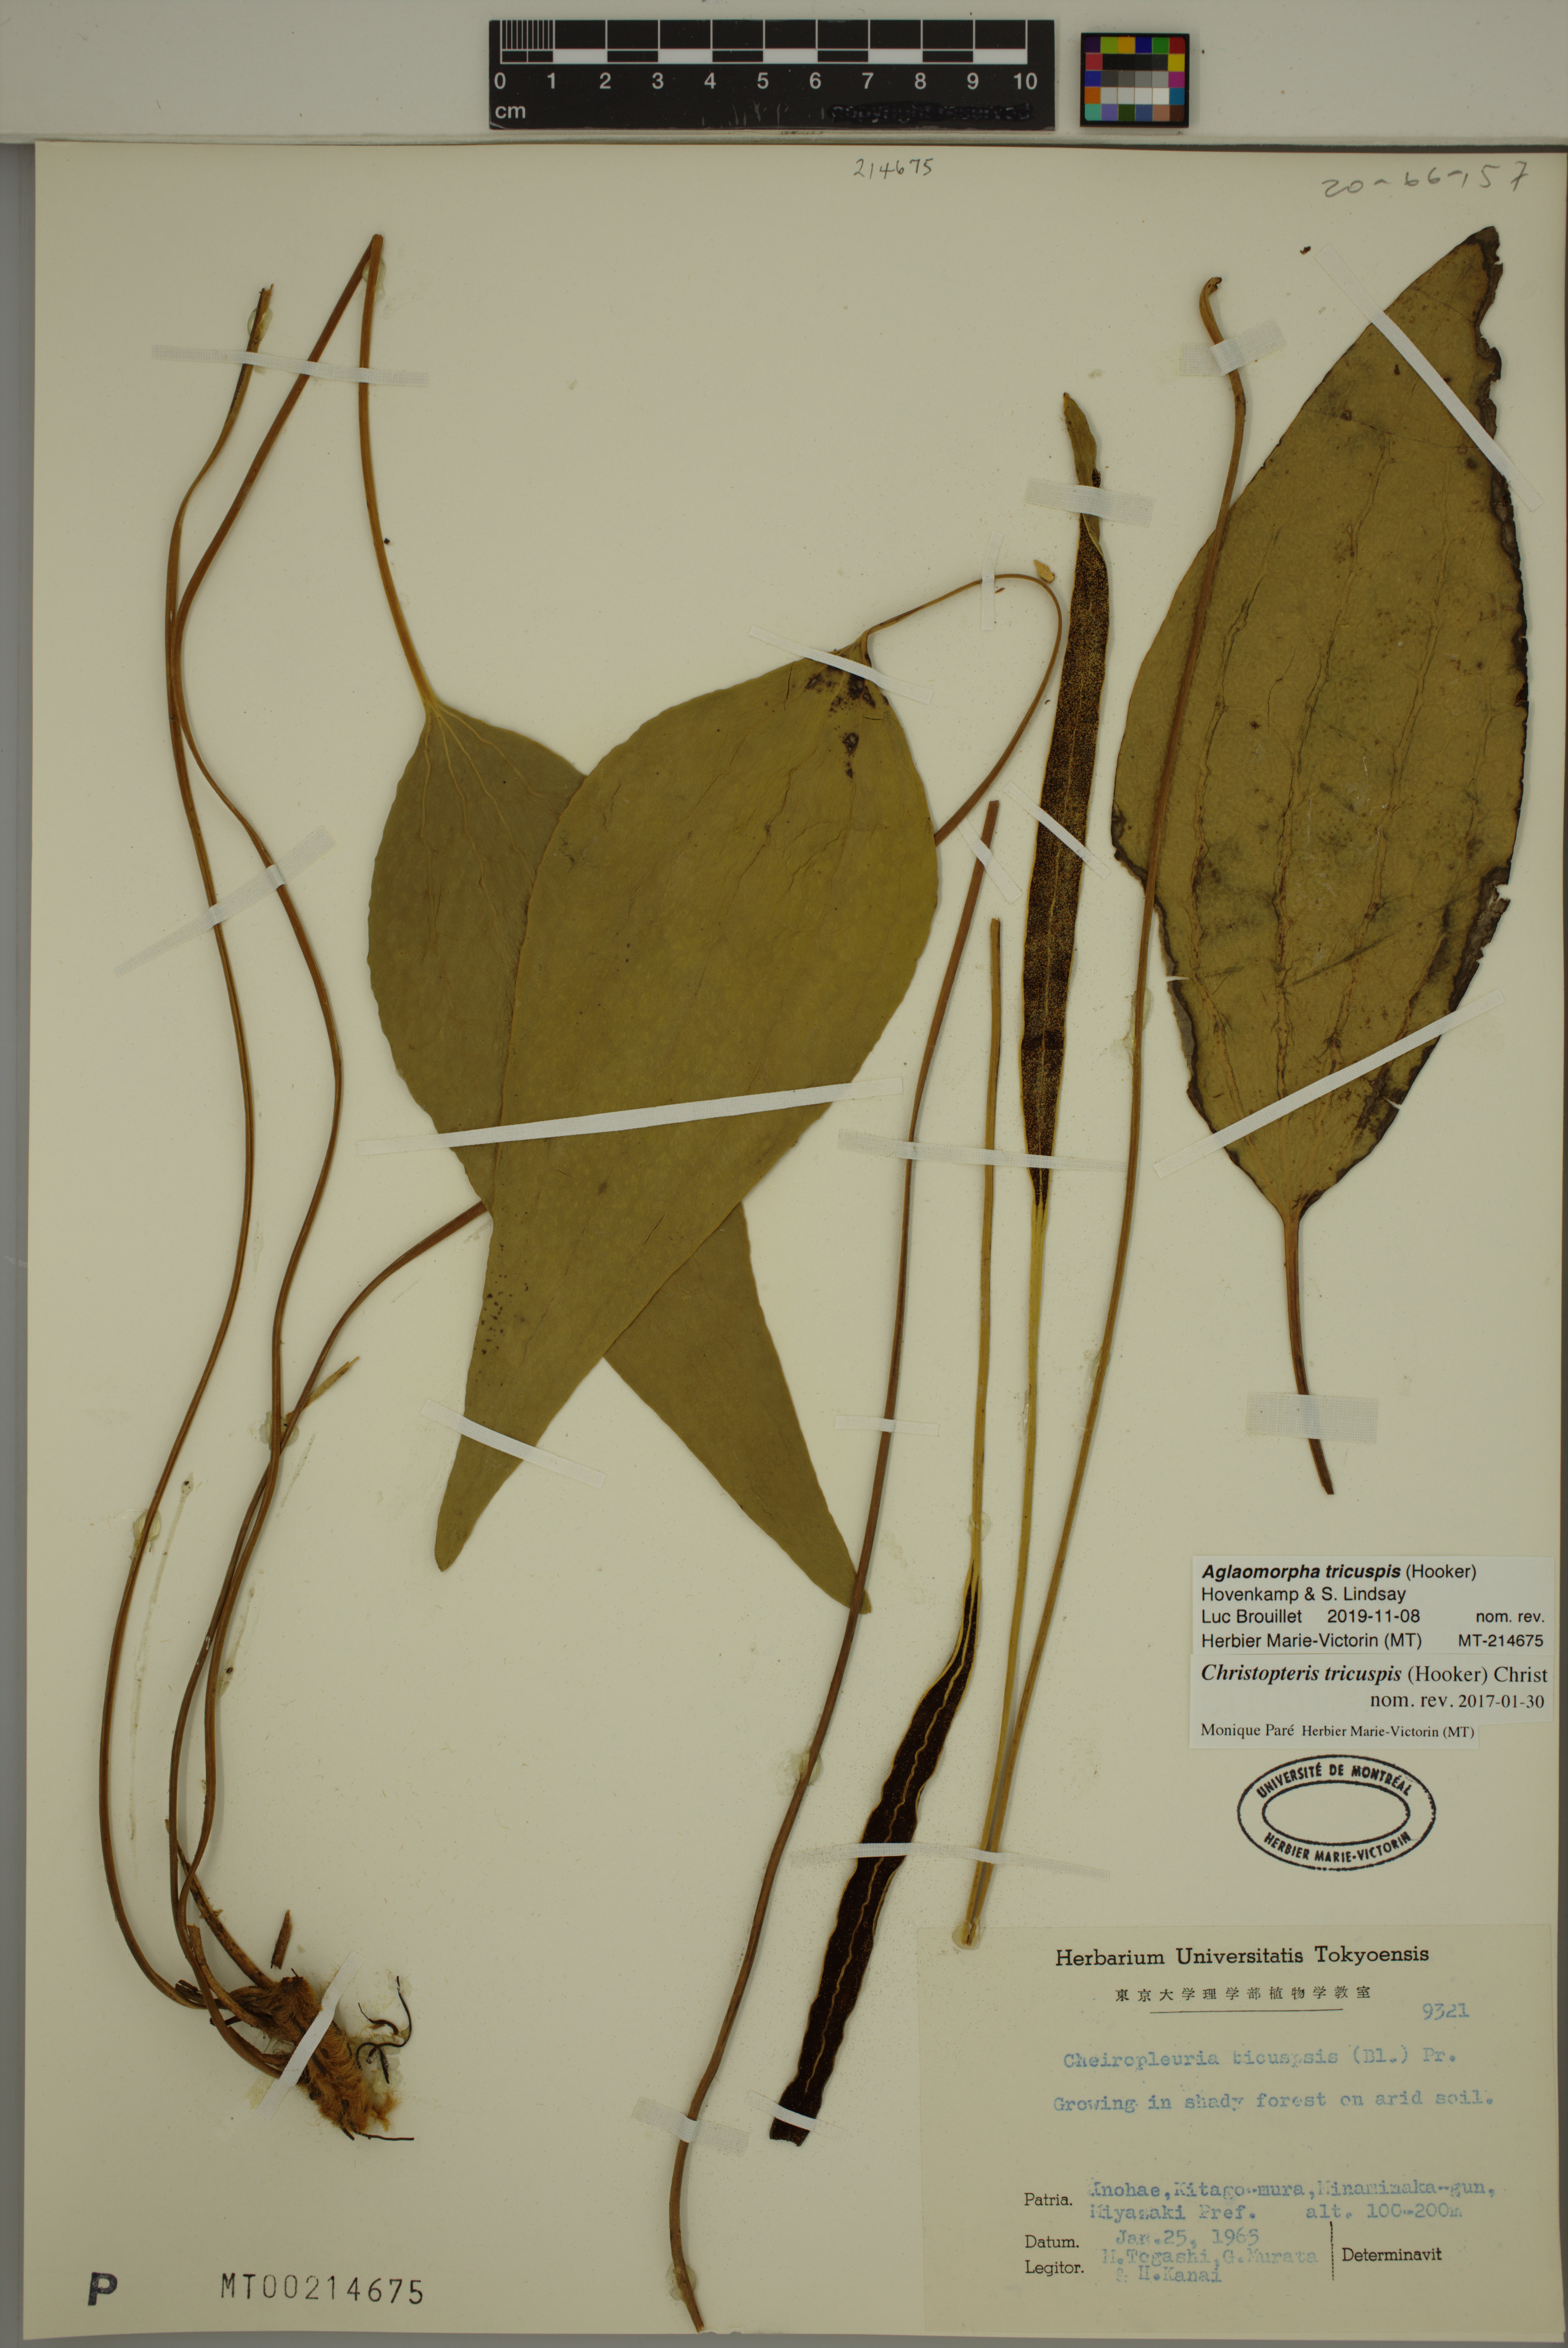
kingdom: Plantae
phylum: Tracheophyta
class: Polypodiopsida
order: Polypodiales
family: Polypodiaceae
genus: Drynaria
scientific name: Drynaria tricuspis
